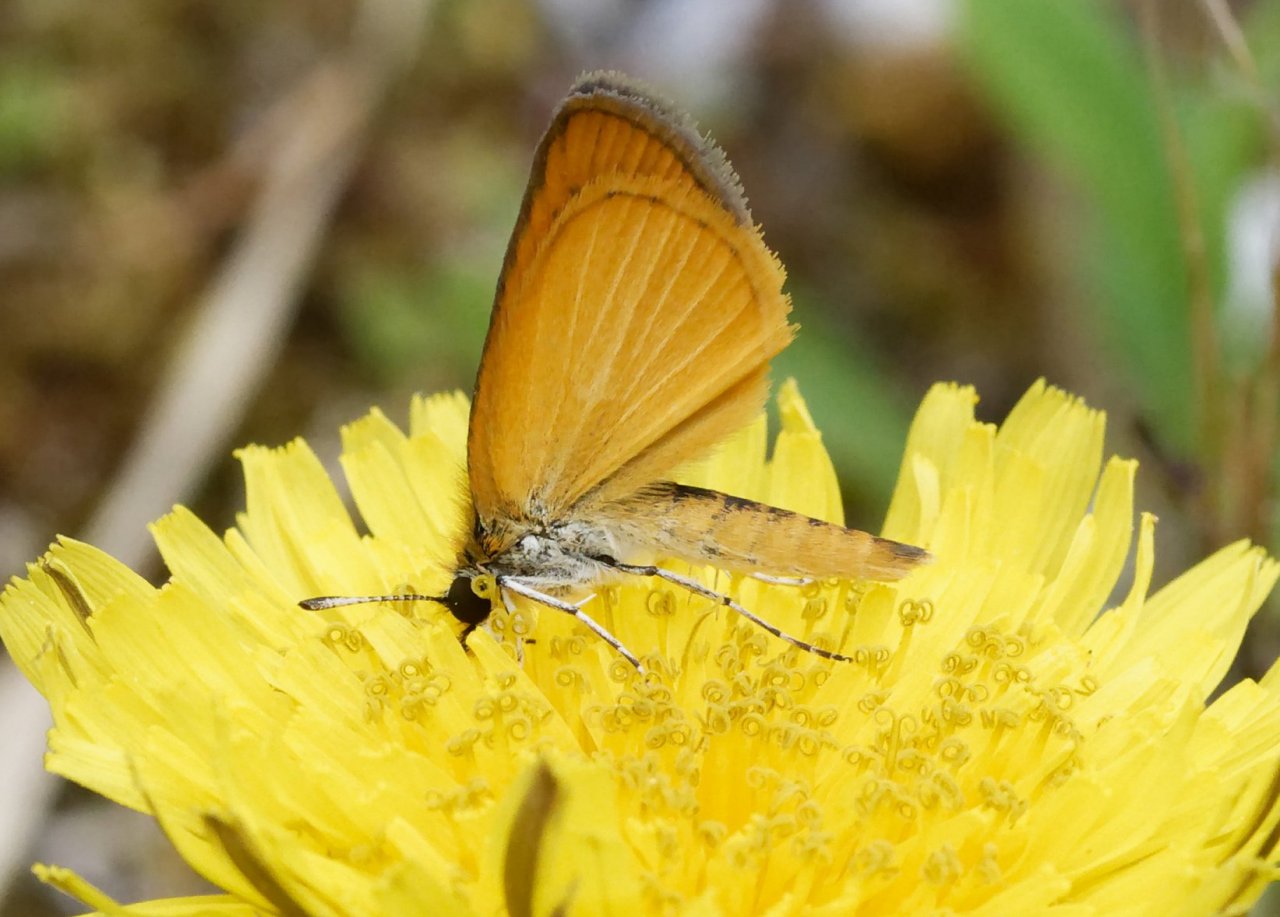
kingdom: Animalia
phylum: Arthropoda
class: Insecta
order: Lepidoptera
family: Hesperiidae
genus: Ancyloxypha
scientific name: Ancyloxypha numitor
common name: Least Skipper
